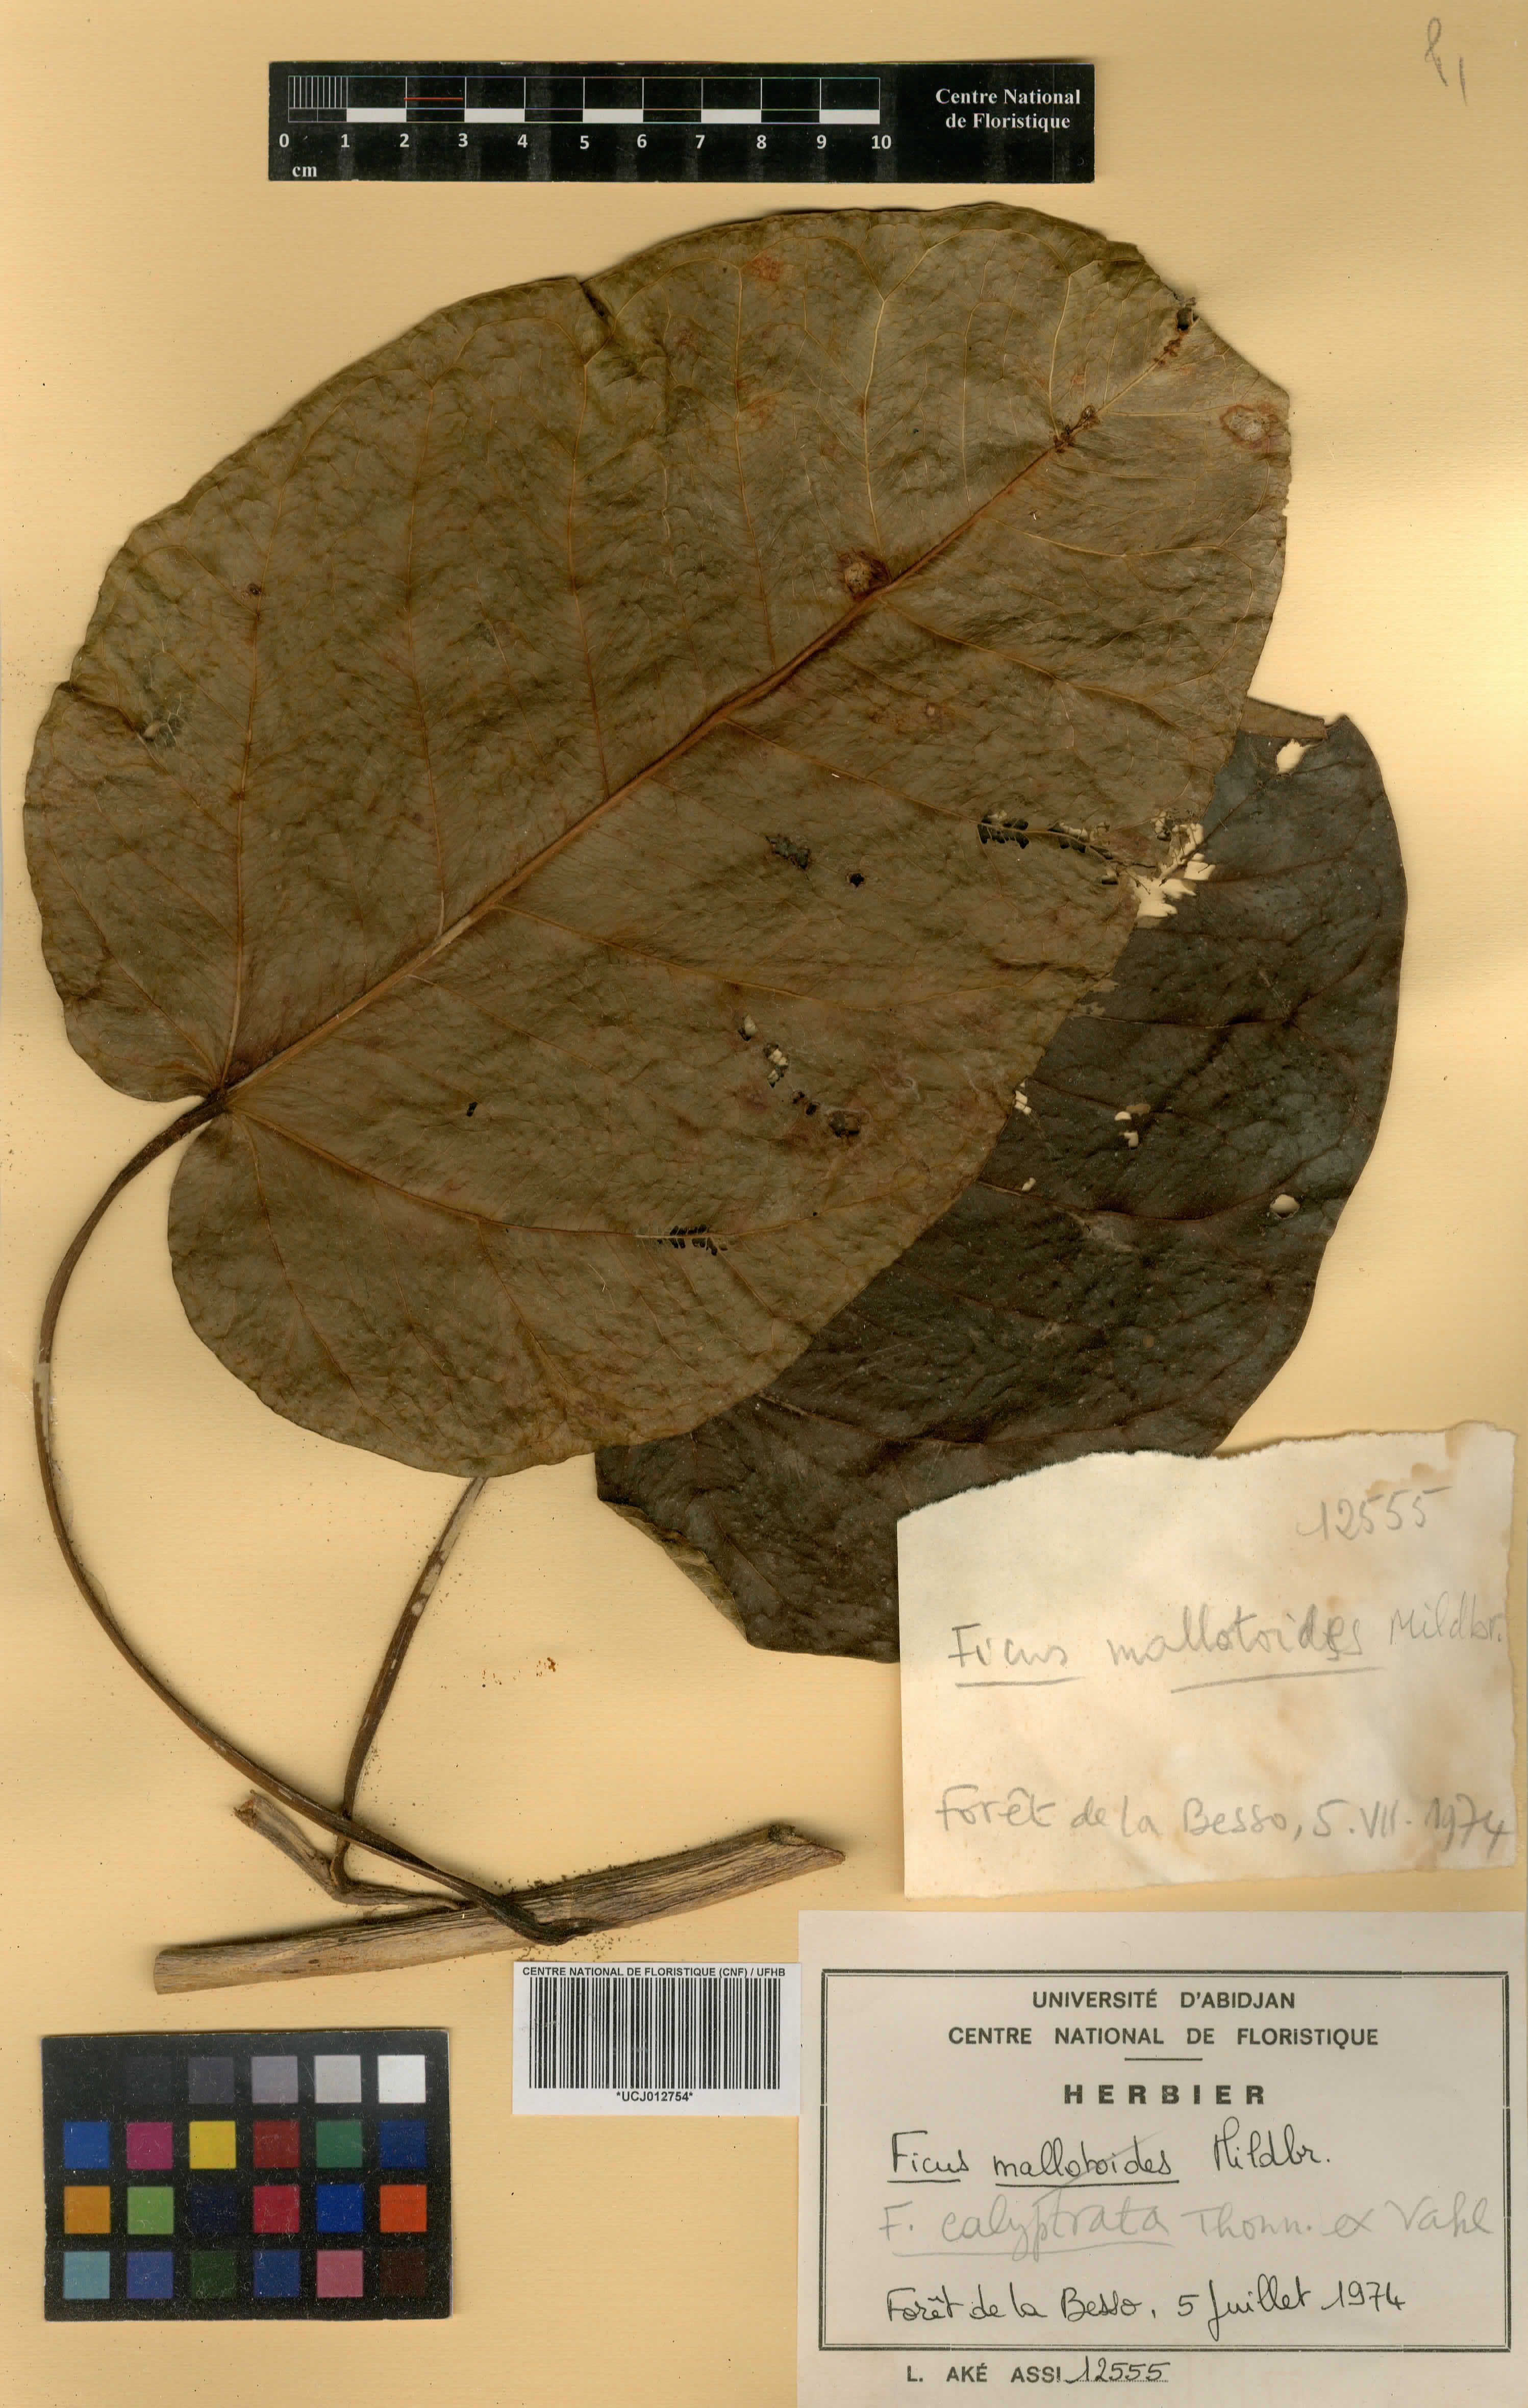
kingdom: Plantae
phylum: Tracheophyta
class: Magnoliopsida
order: Rosales
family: Moraceae
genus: Ficus
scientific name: Ficus calyptrata
